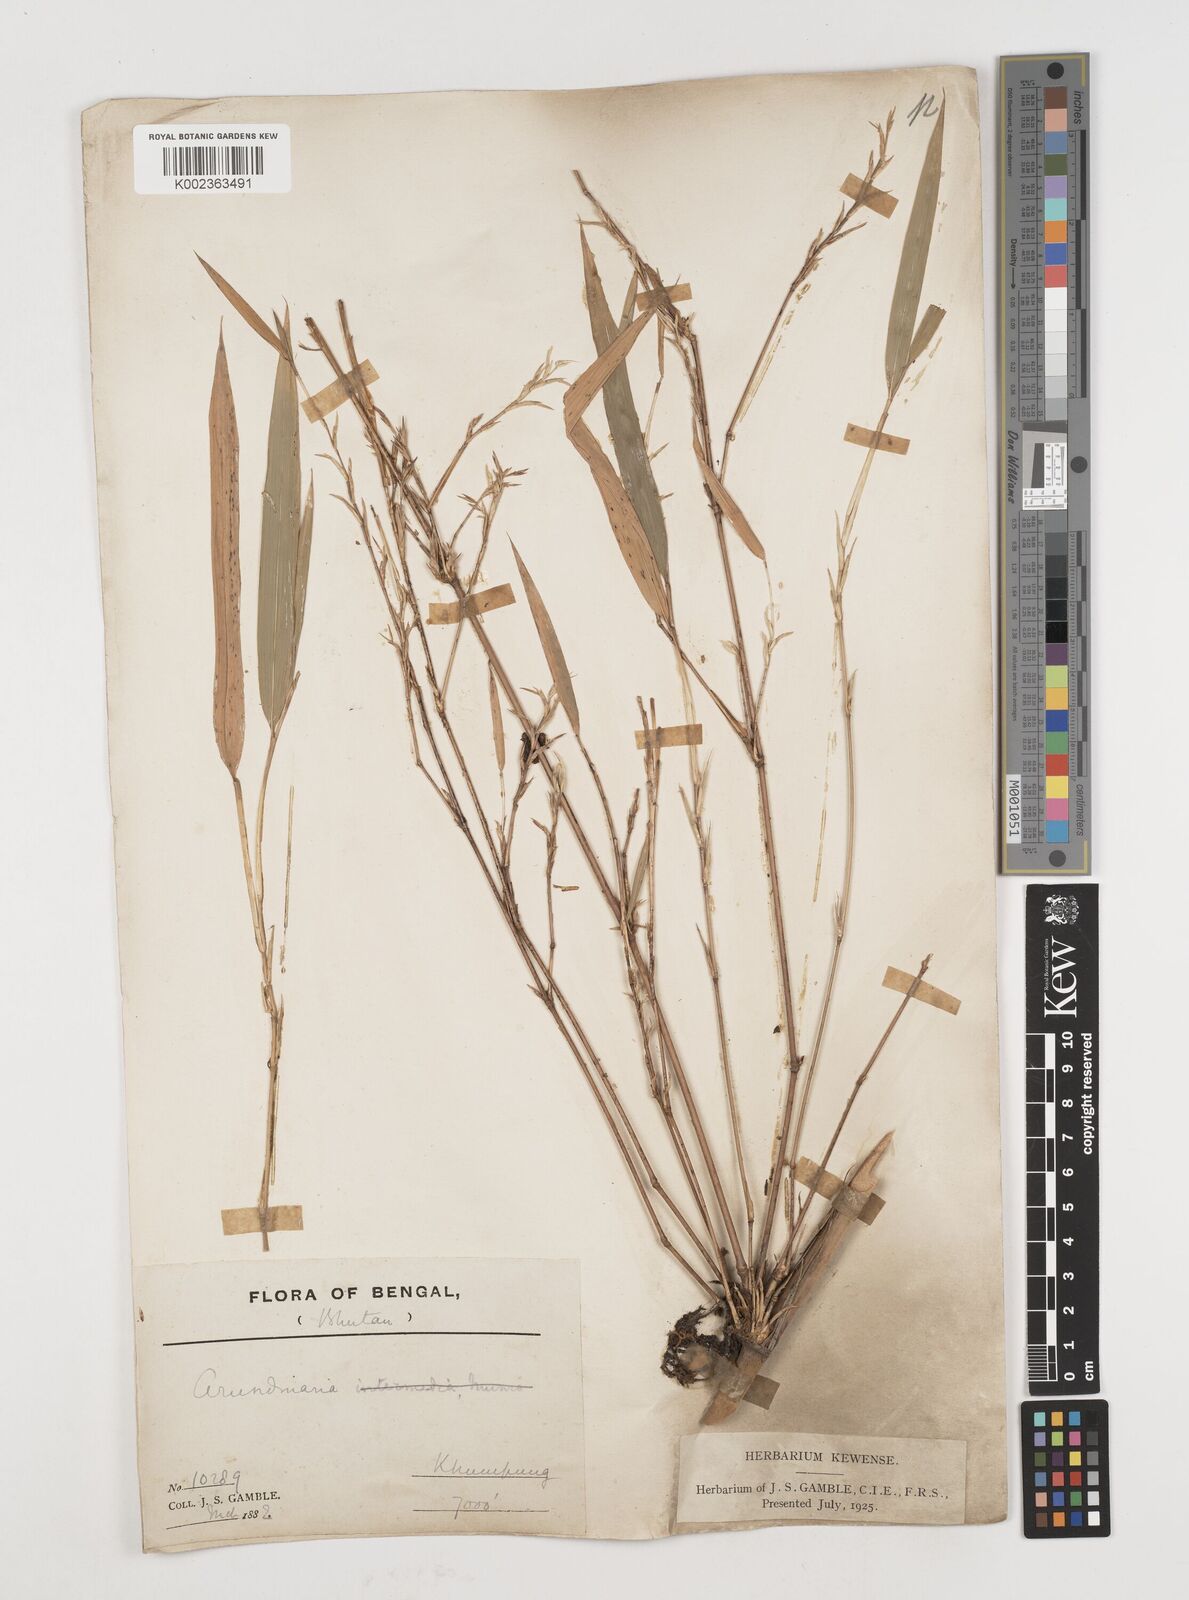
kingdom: Plantae
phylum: Tracheophyta
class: Liliopsida
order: Poales
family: Poaceae
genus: Himalayacalamus
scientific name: Himalayacalamus
